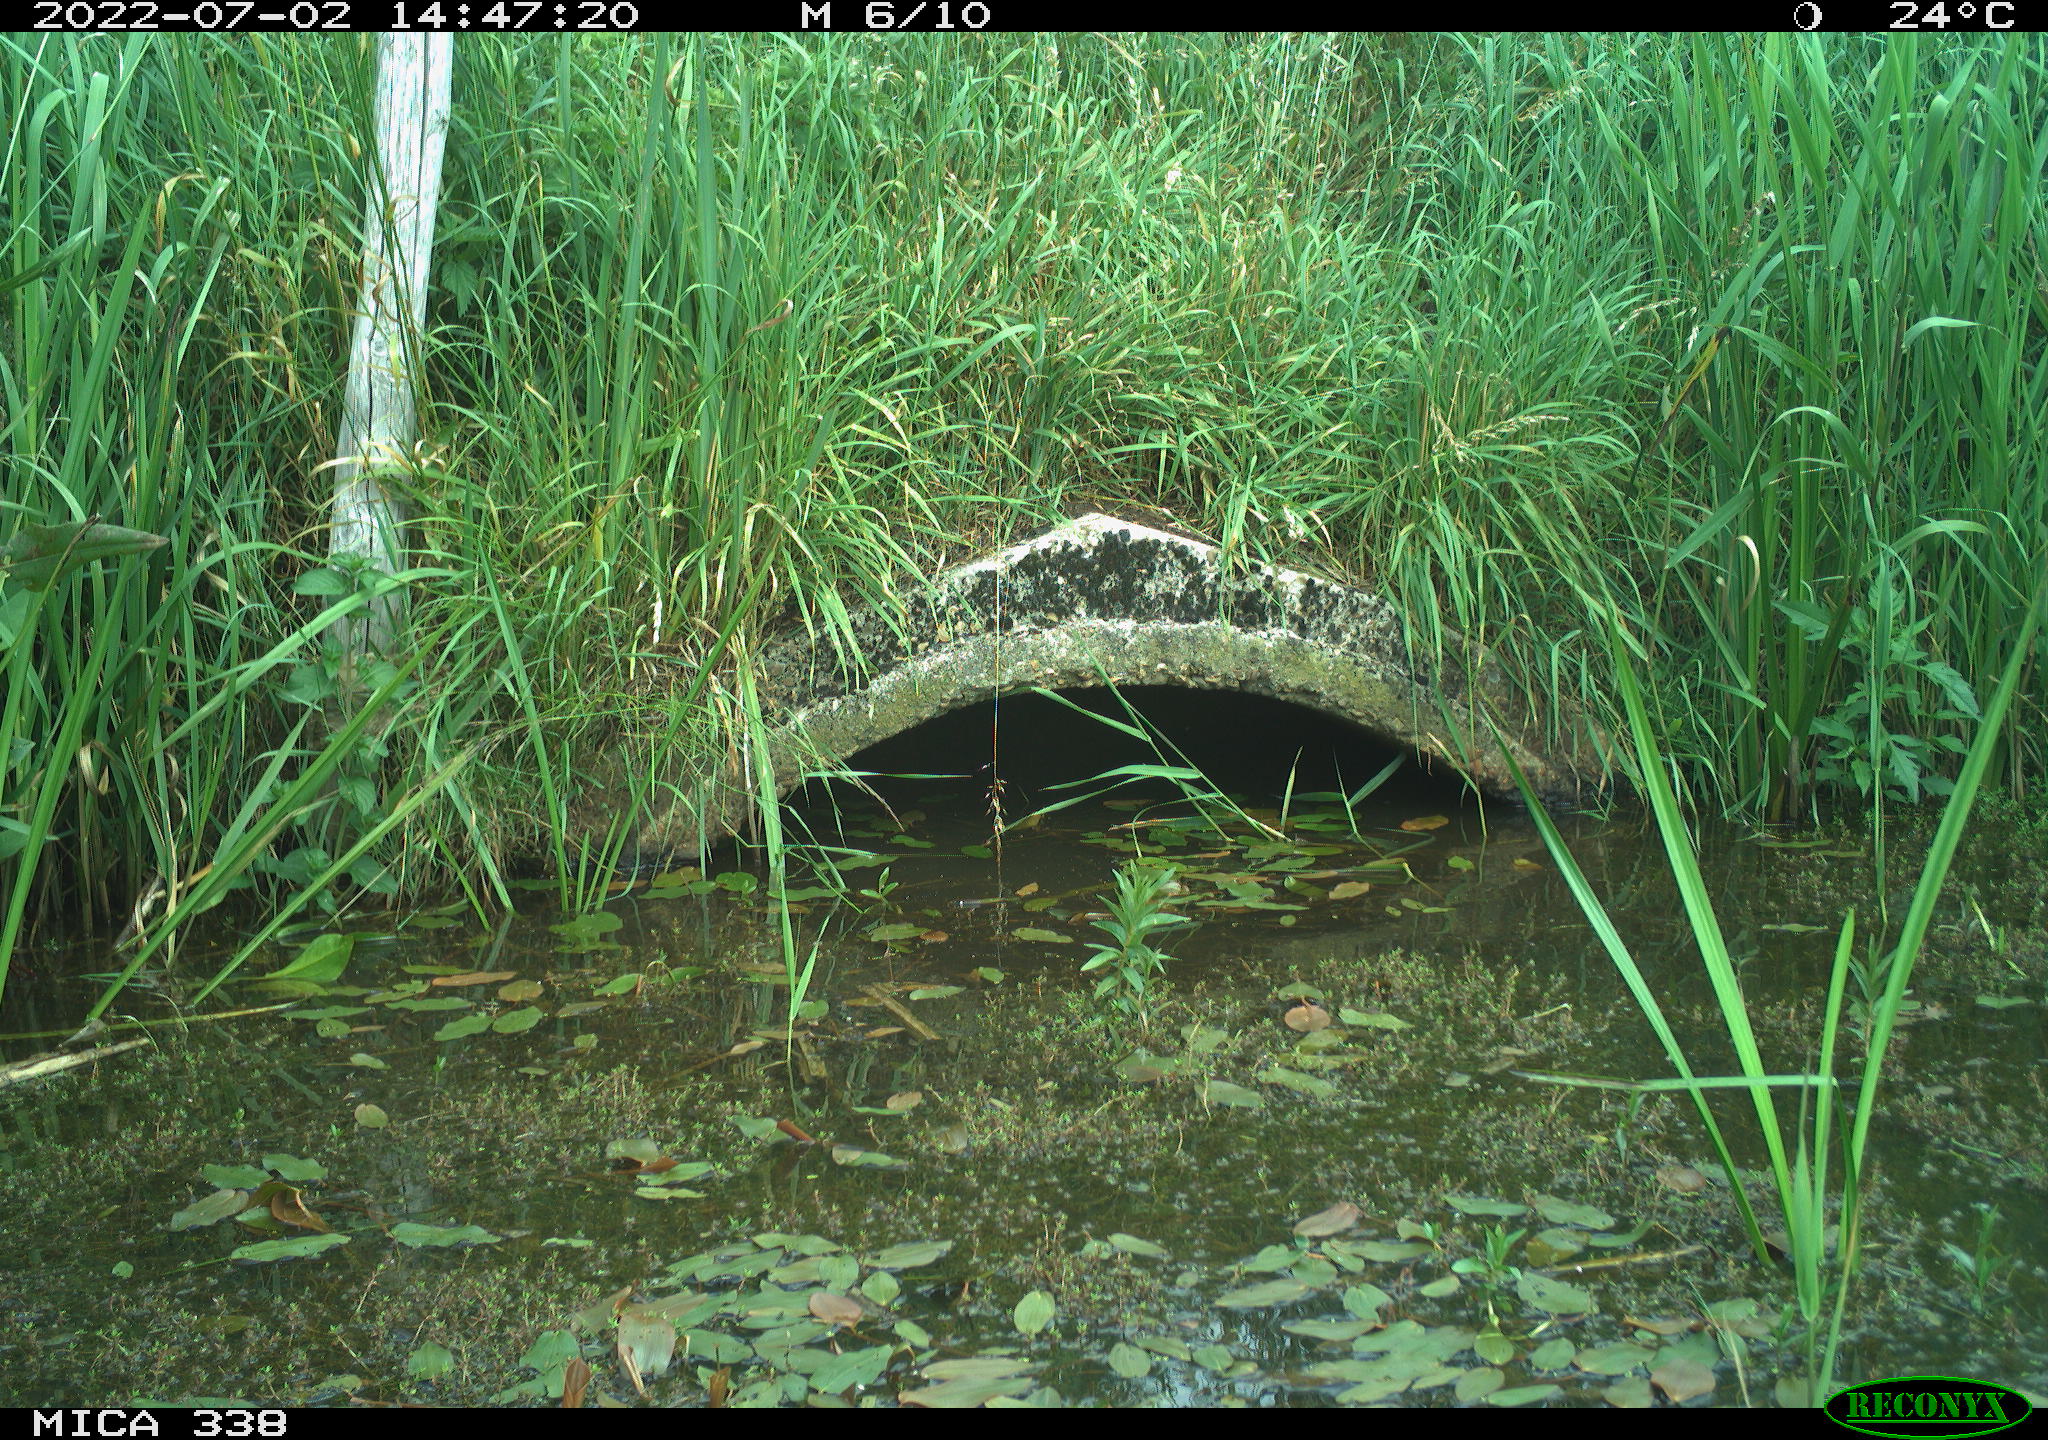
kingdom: Animalia
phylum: Chordata
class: Aves
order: Anseriformes
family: Anatidae
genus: Anas
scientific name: Anas platyrhynchos
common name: Mallard
